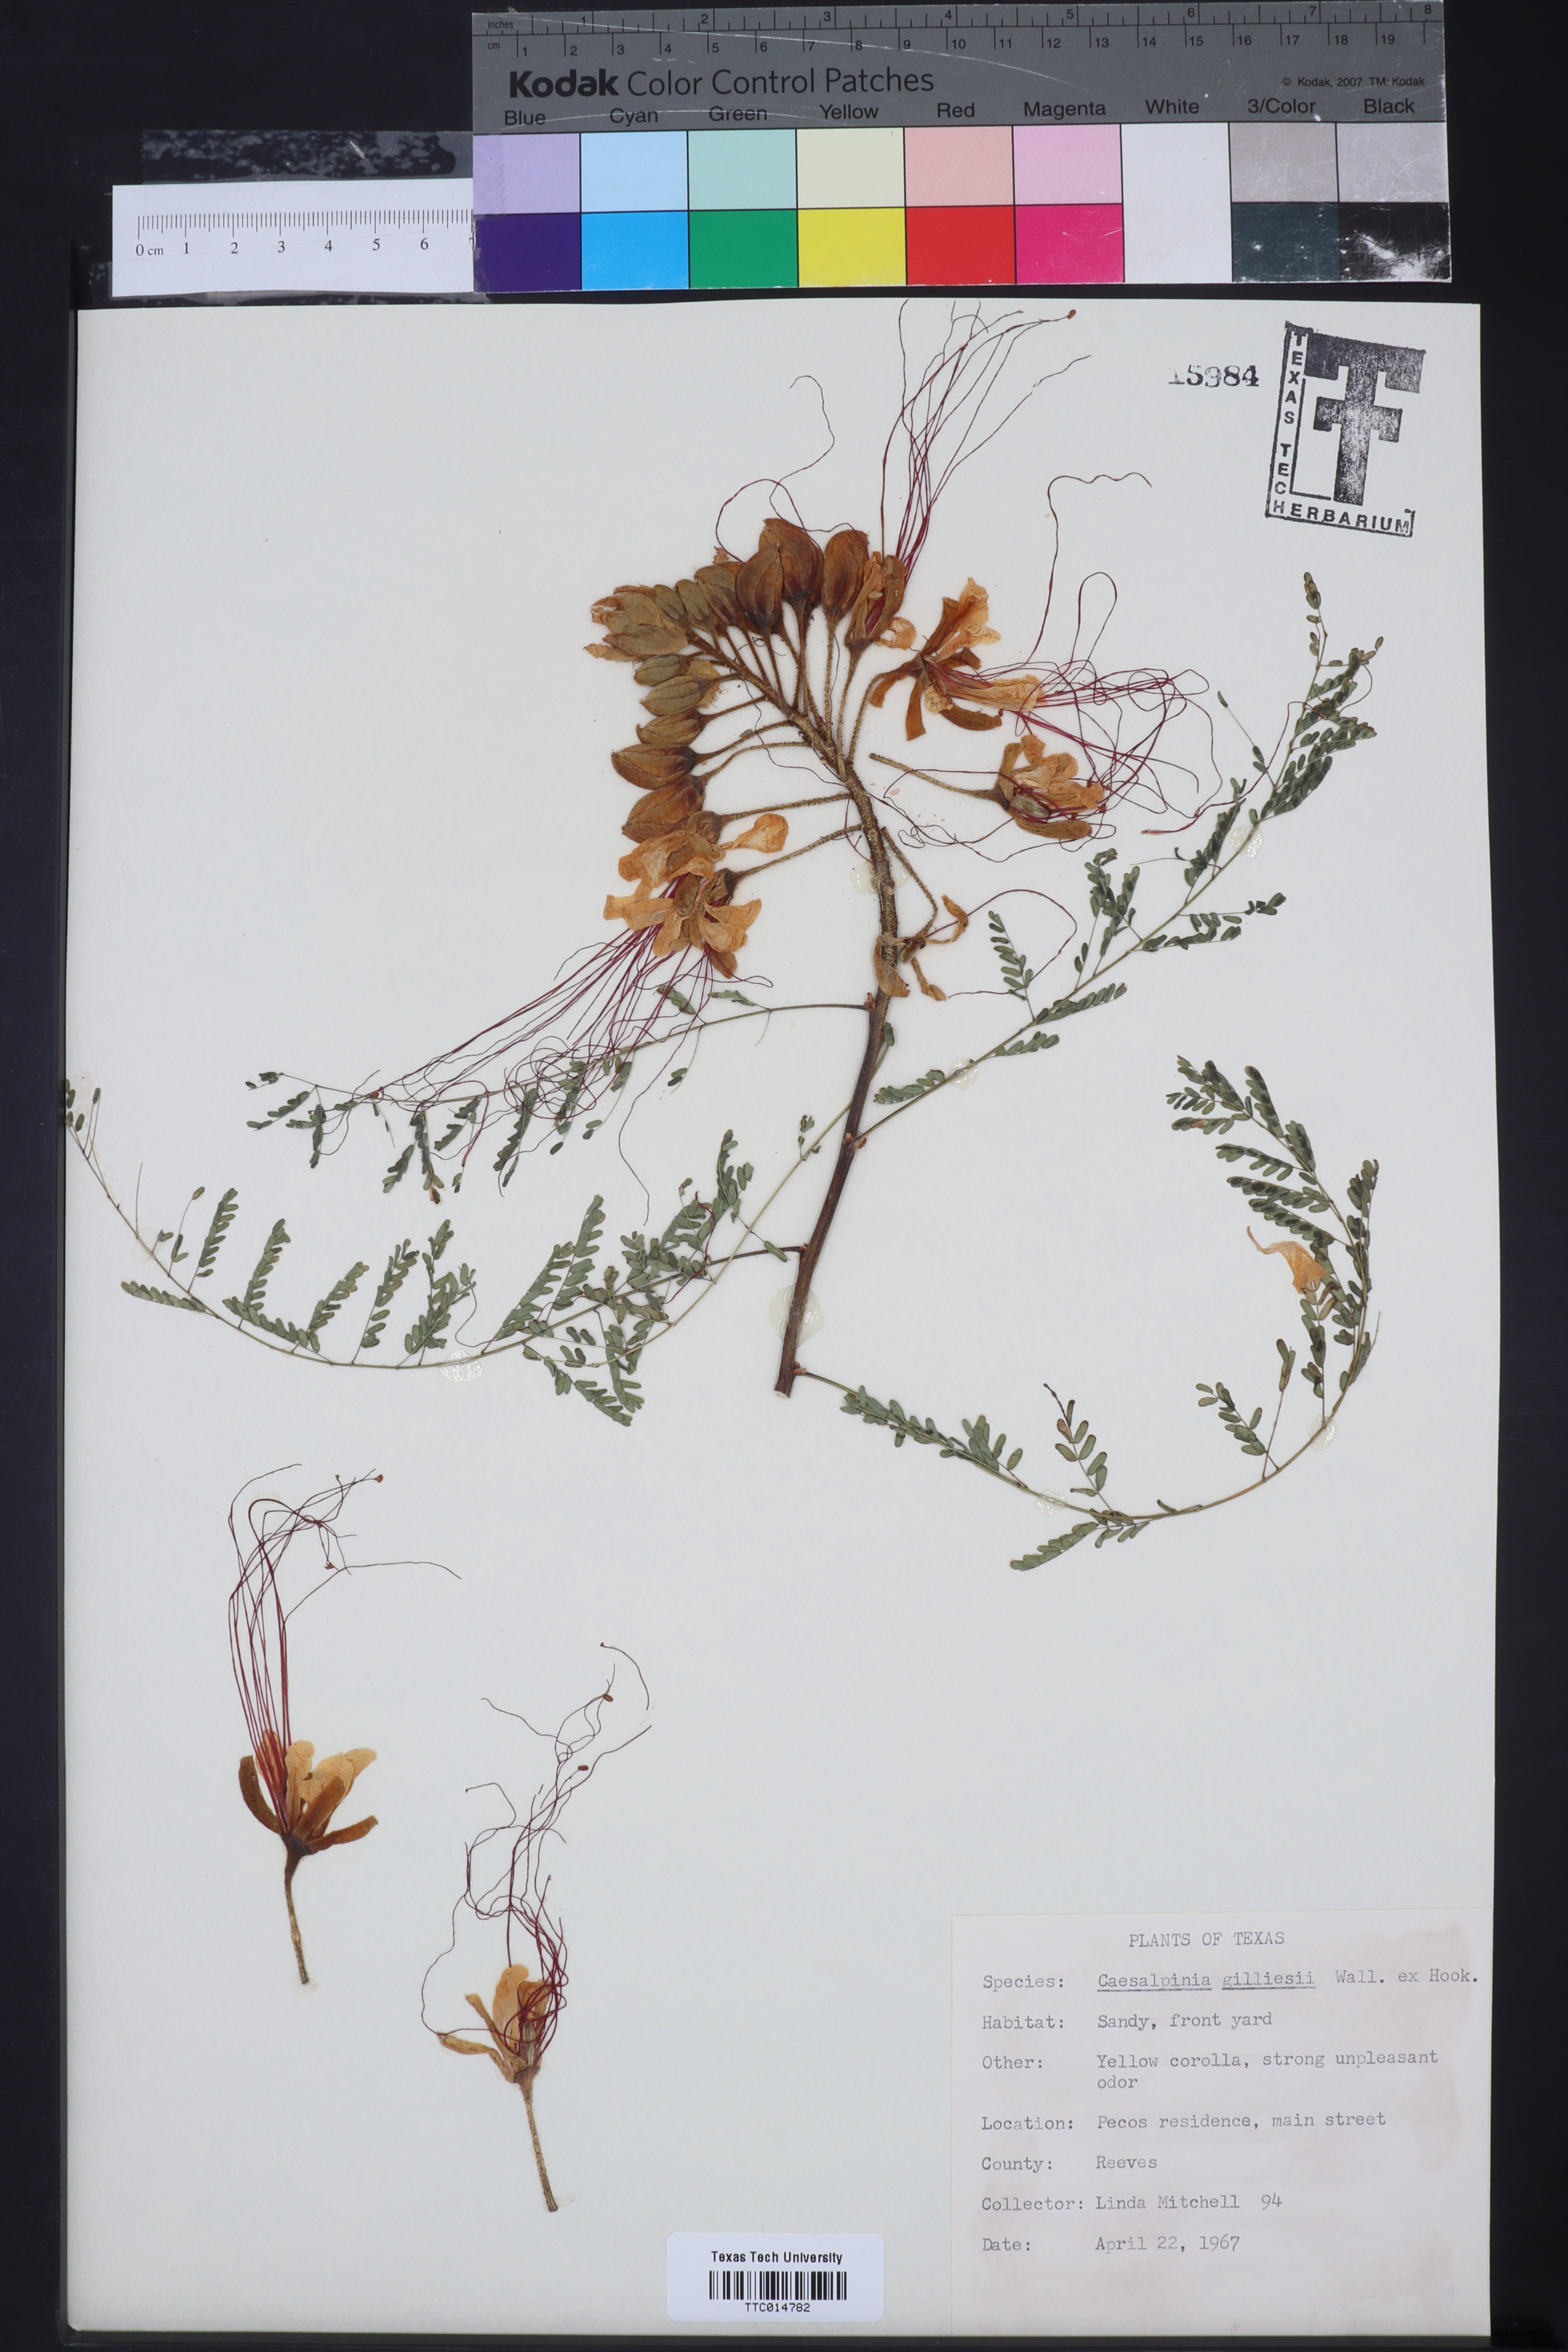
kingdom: Plantae
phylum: Tracheophyta
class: Magnoliopsida
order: Fabales
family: Fabaceae
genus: Erythrostemon
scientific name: Erythrostemon gilliesii
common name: Bird-of-paradise shrub
